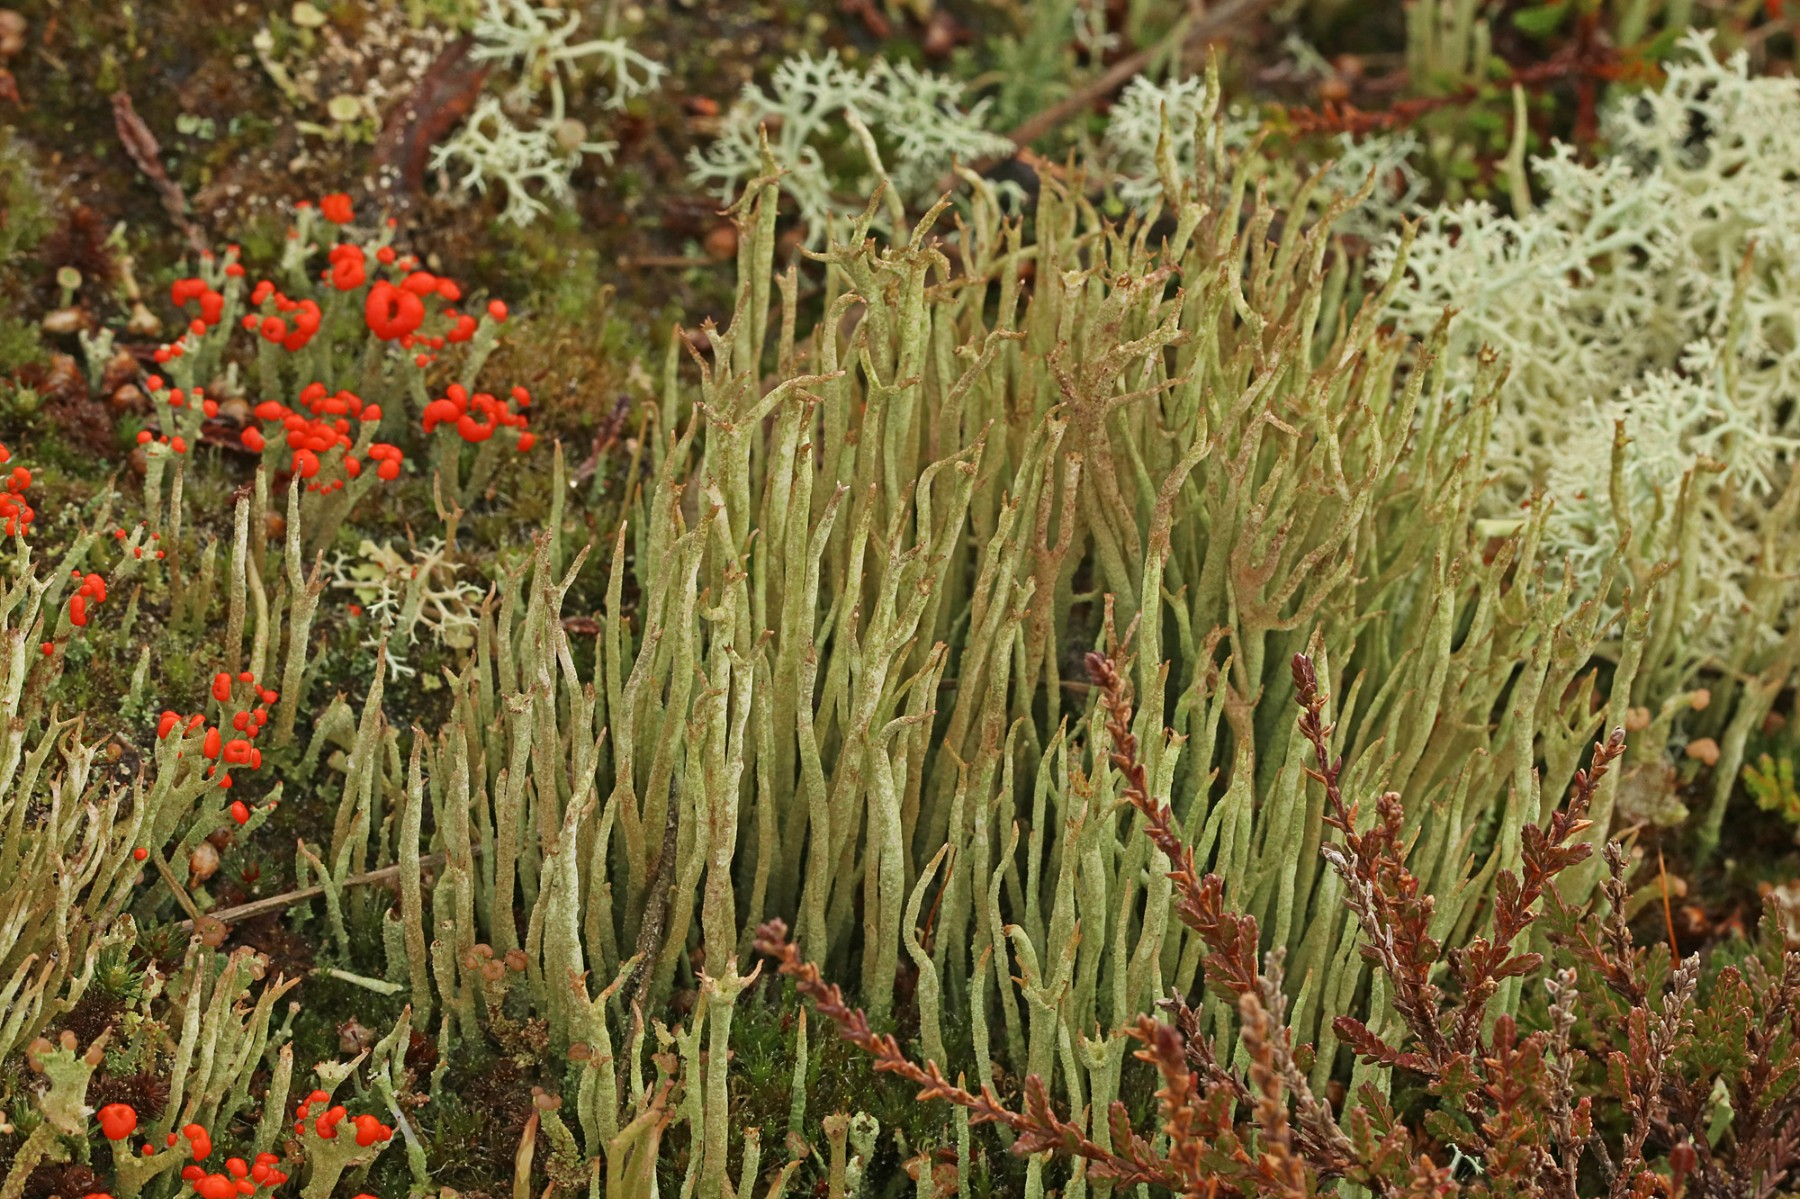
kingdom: Fungi
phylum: Ascomycota
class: Lecanoromycetes
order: Lecanorales
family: Cladoniaceae
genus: Cladonia
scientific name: Cladonia cornuta
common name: syl-bægerlav
